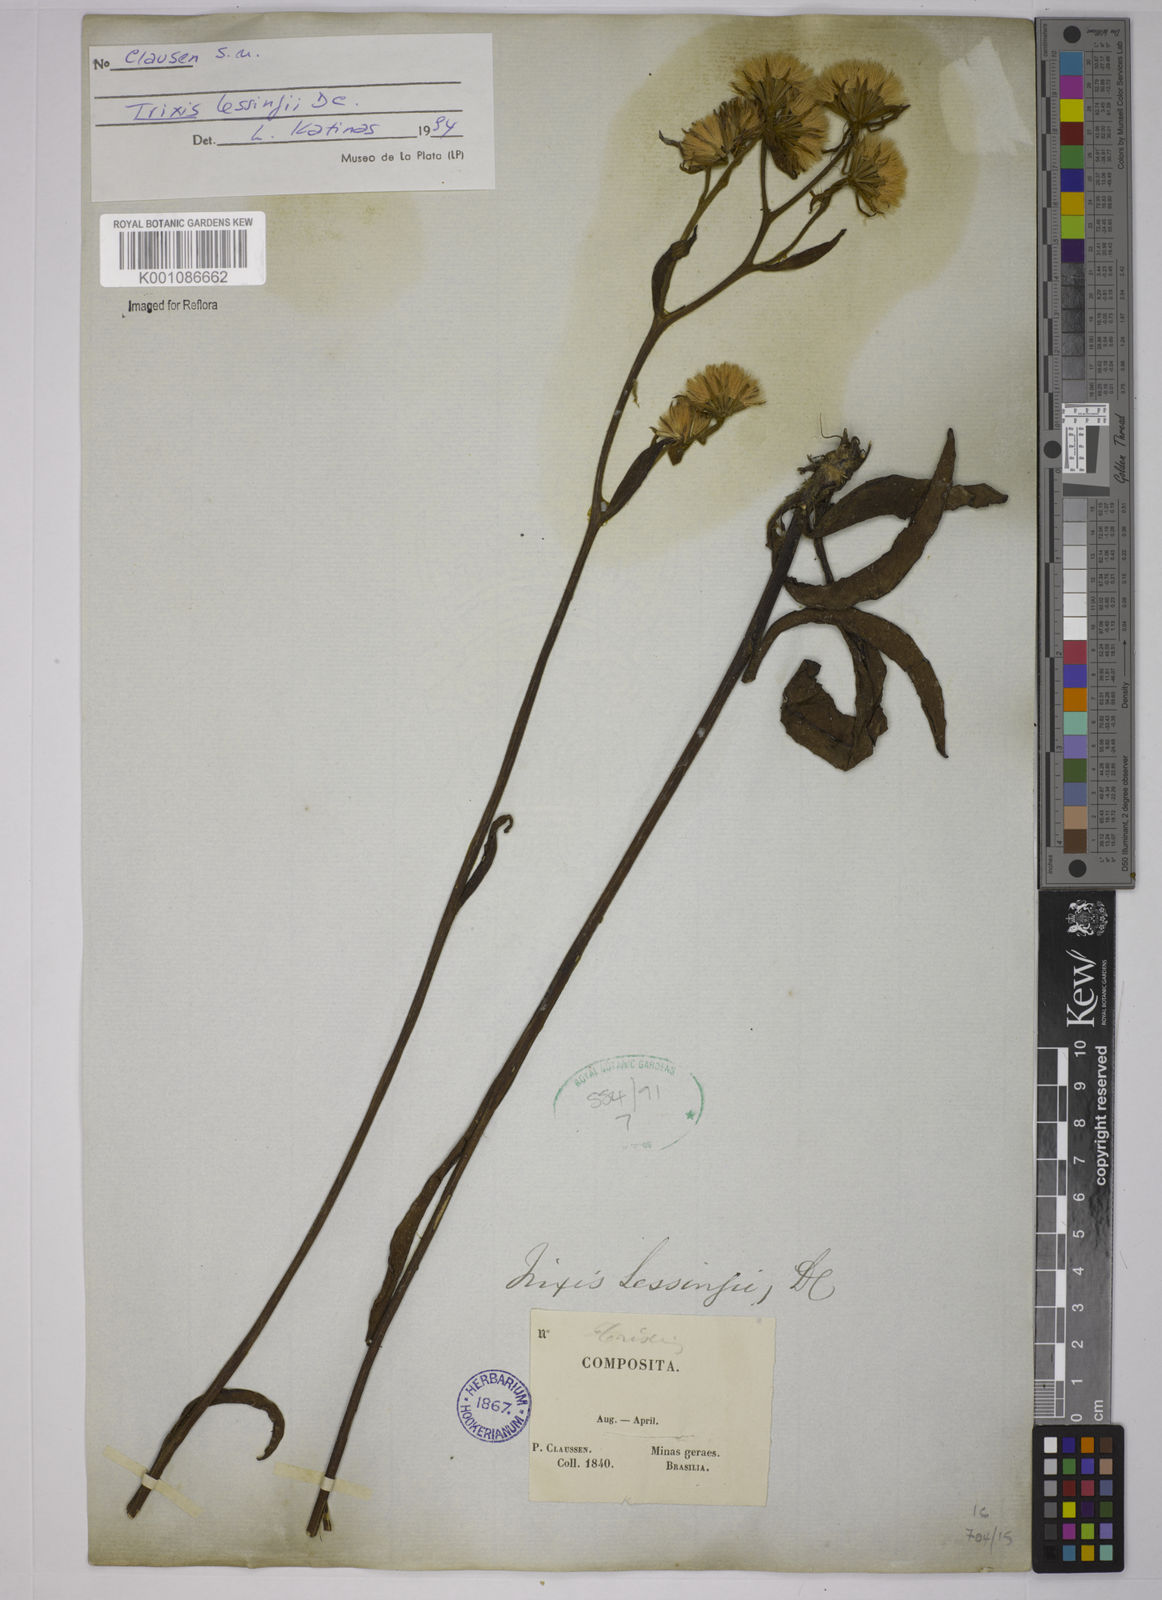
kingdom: Plantae
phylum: Tracheophyta
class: Magnoliopsida
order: Asterales
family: Asteraceae
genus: Trixis
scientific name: Trixis lessingii
